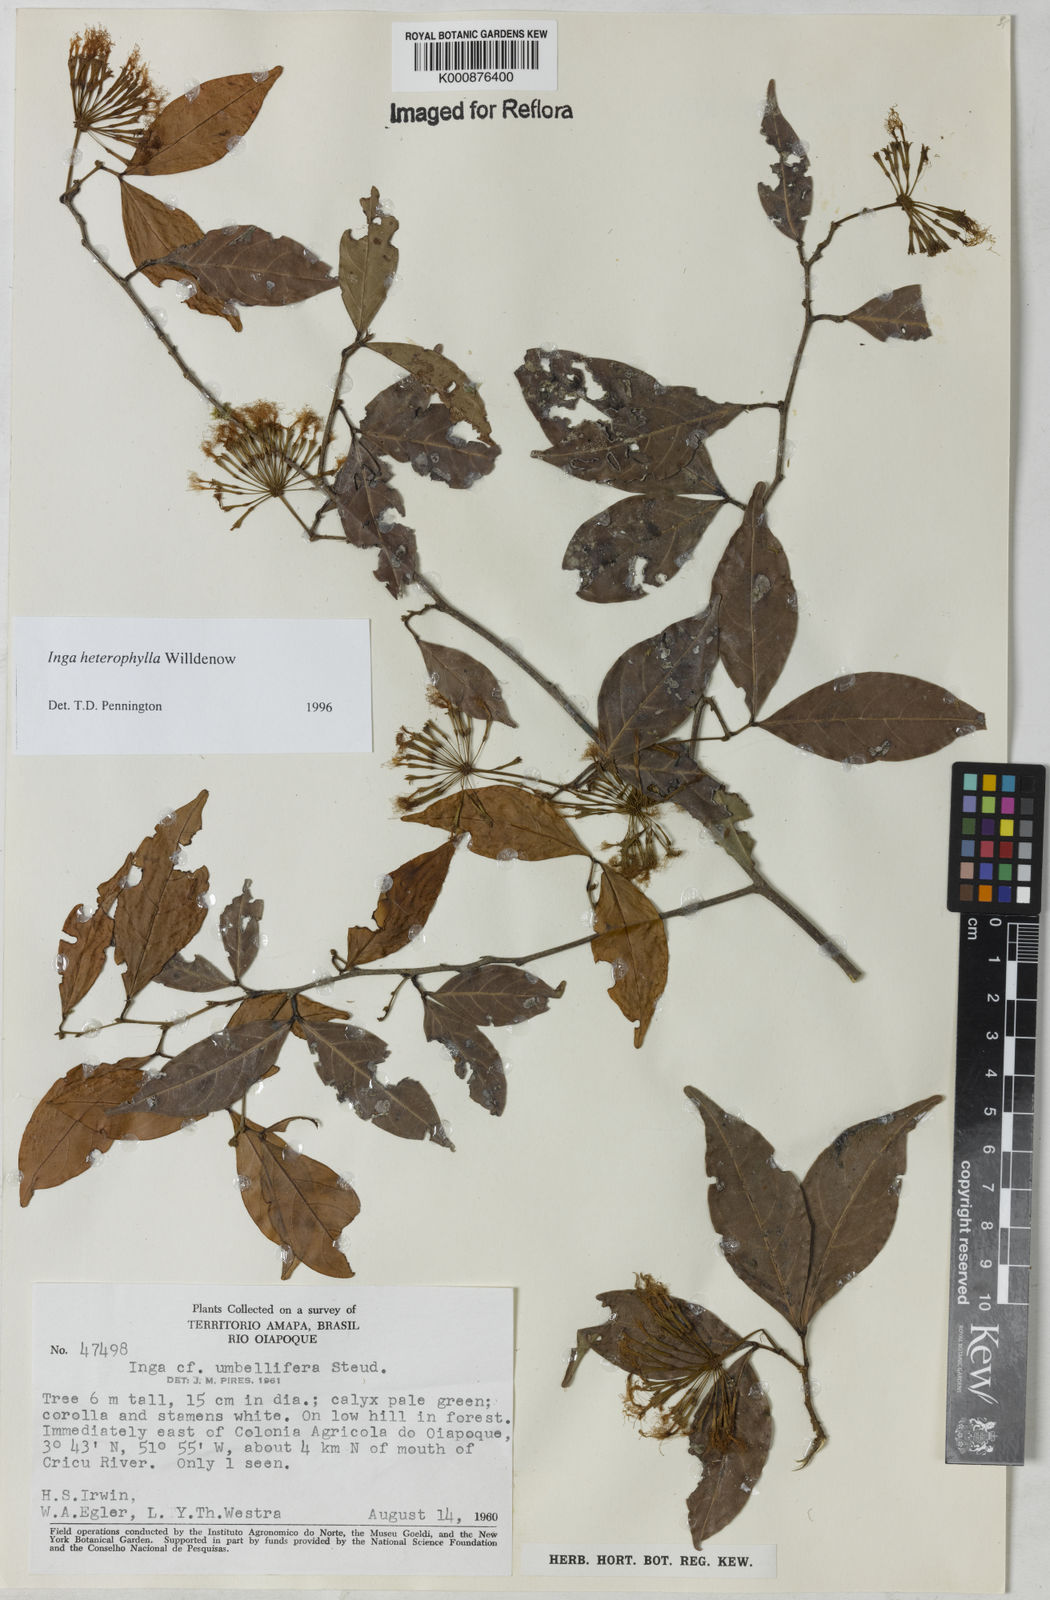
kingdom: Plantae
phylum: Tracheophyta
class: Magnoliopsida
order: Fabales
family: Fabaceae
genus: Inga
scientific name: Inga heterophylla
